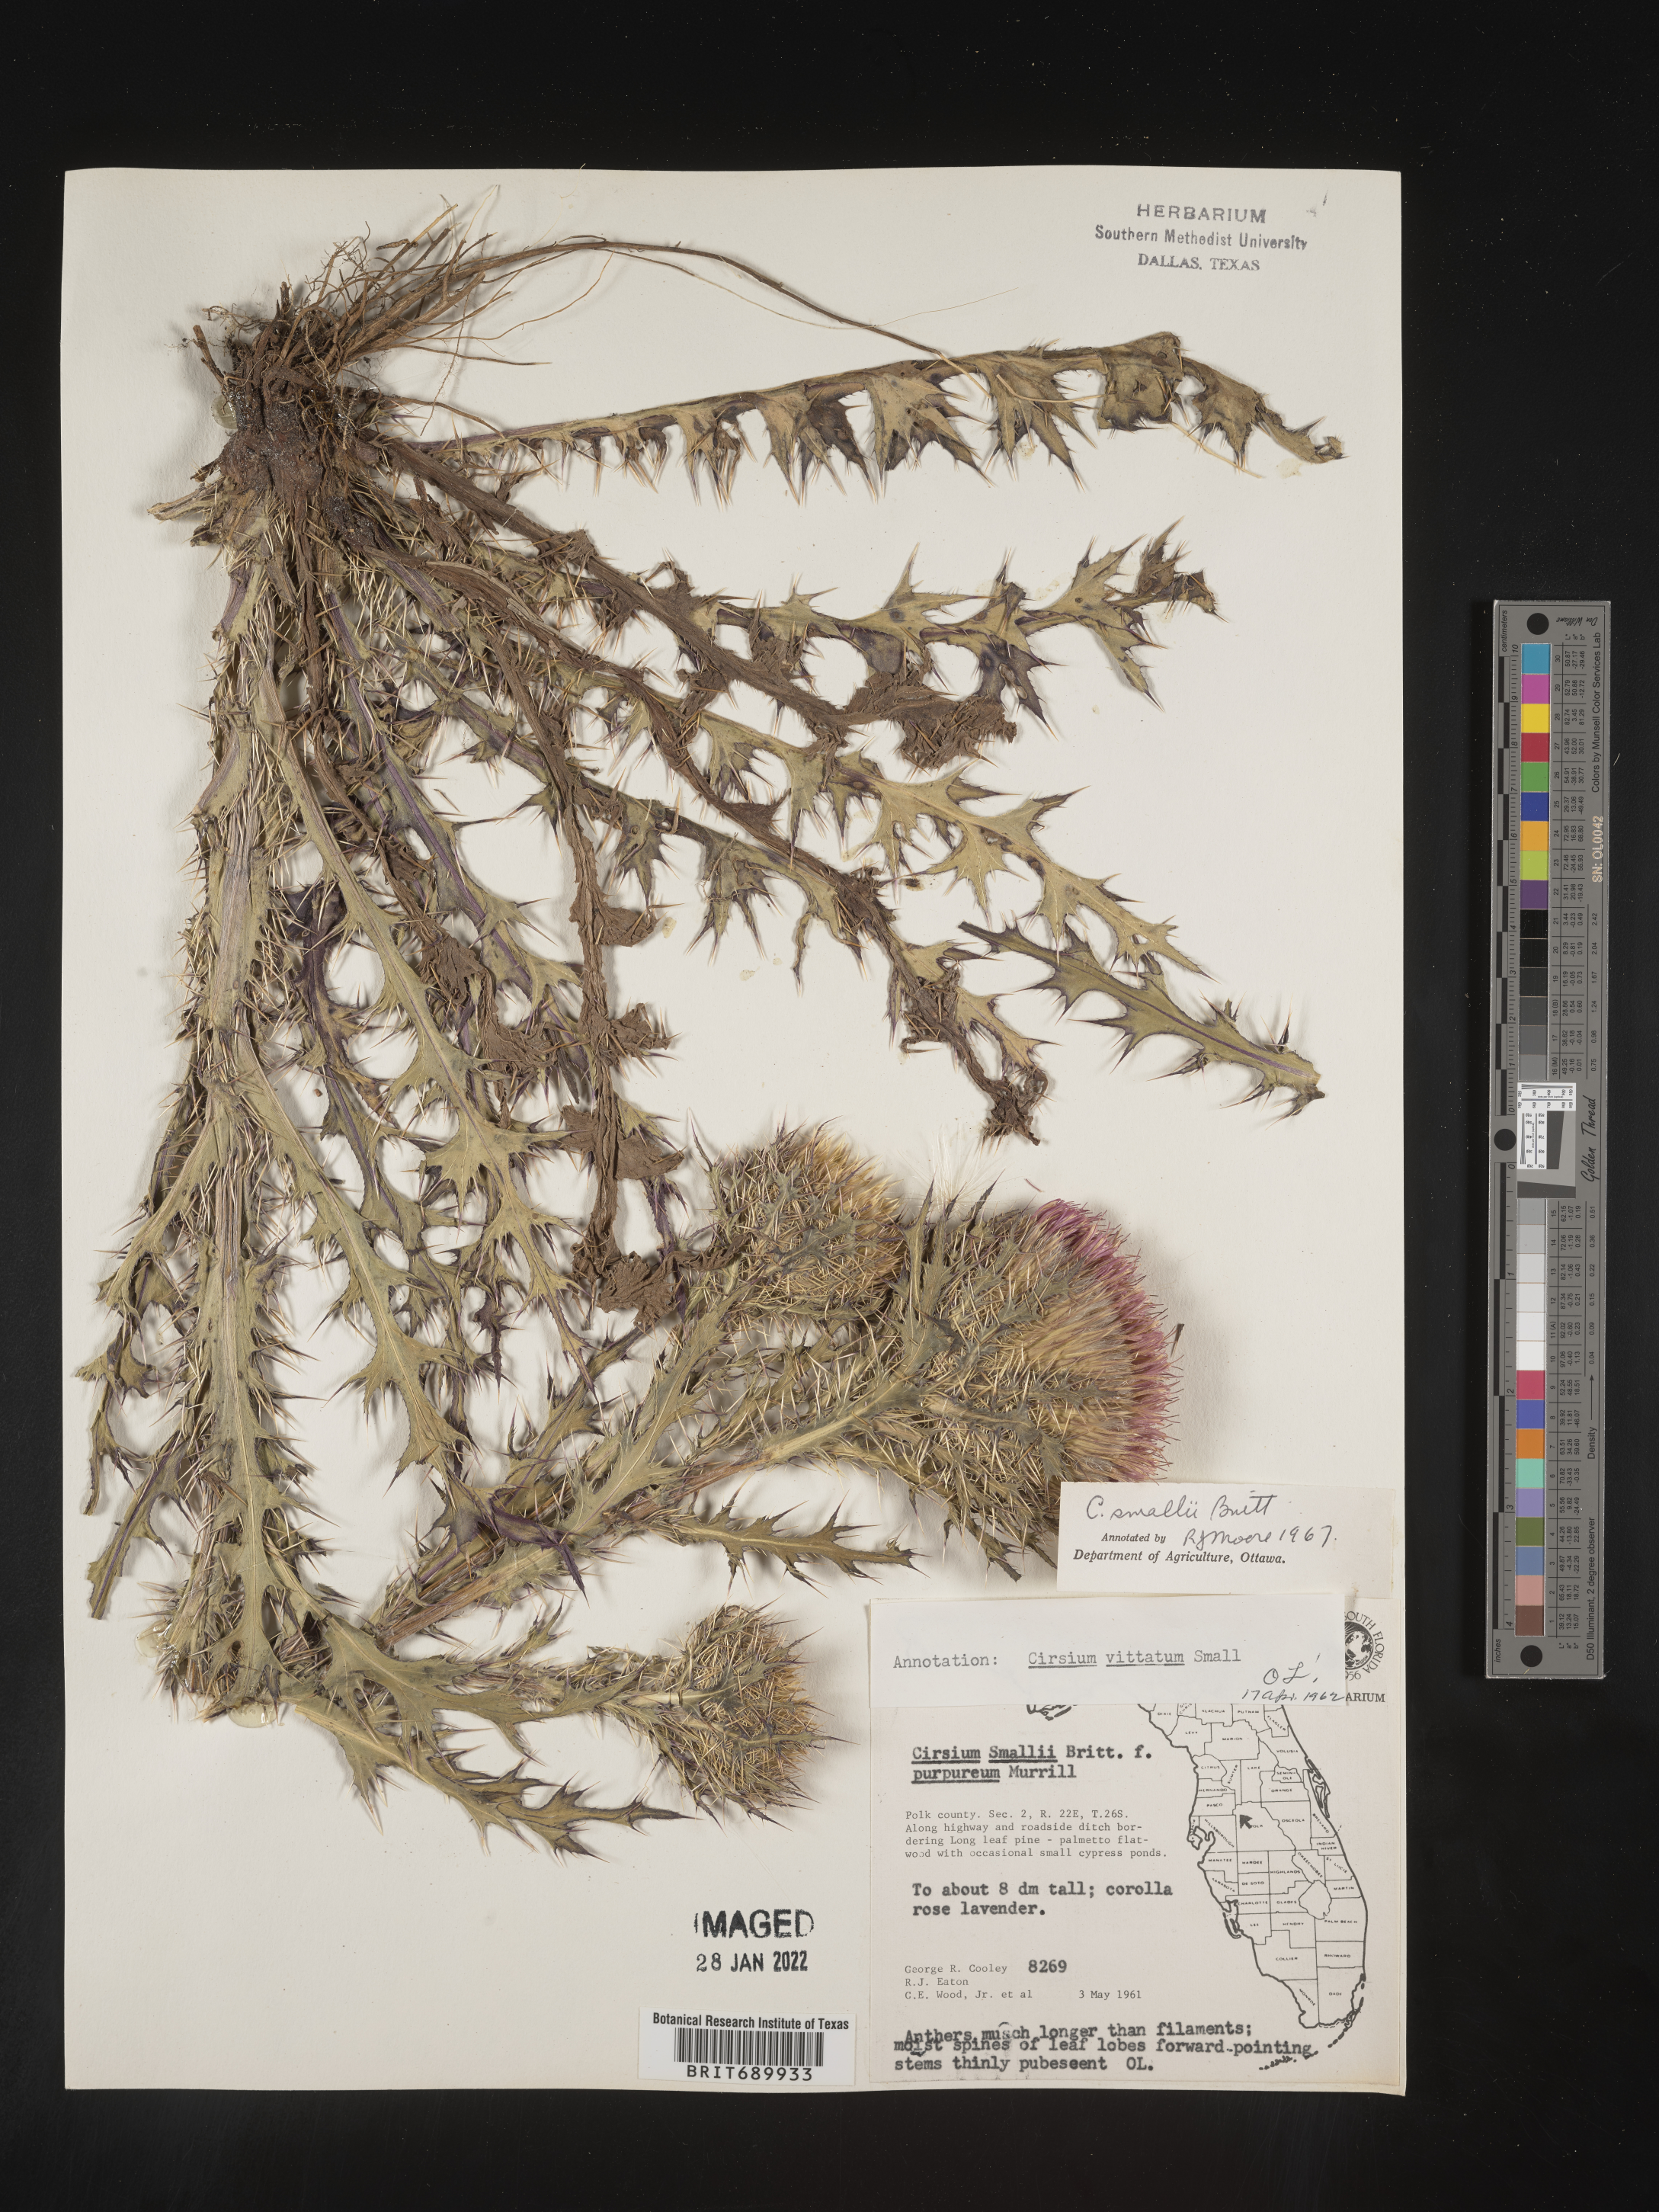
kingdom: Plantae
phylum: Tracheophyta
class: Magnoliopsida
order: Asterales
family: Asteraceae
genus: Cirsium
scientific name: Cirsium horridulum
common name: Bristly thistle
